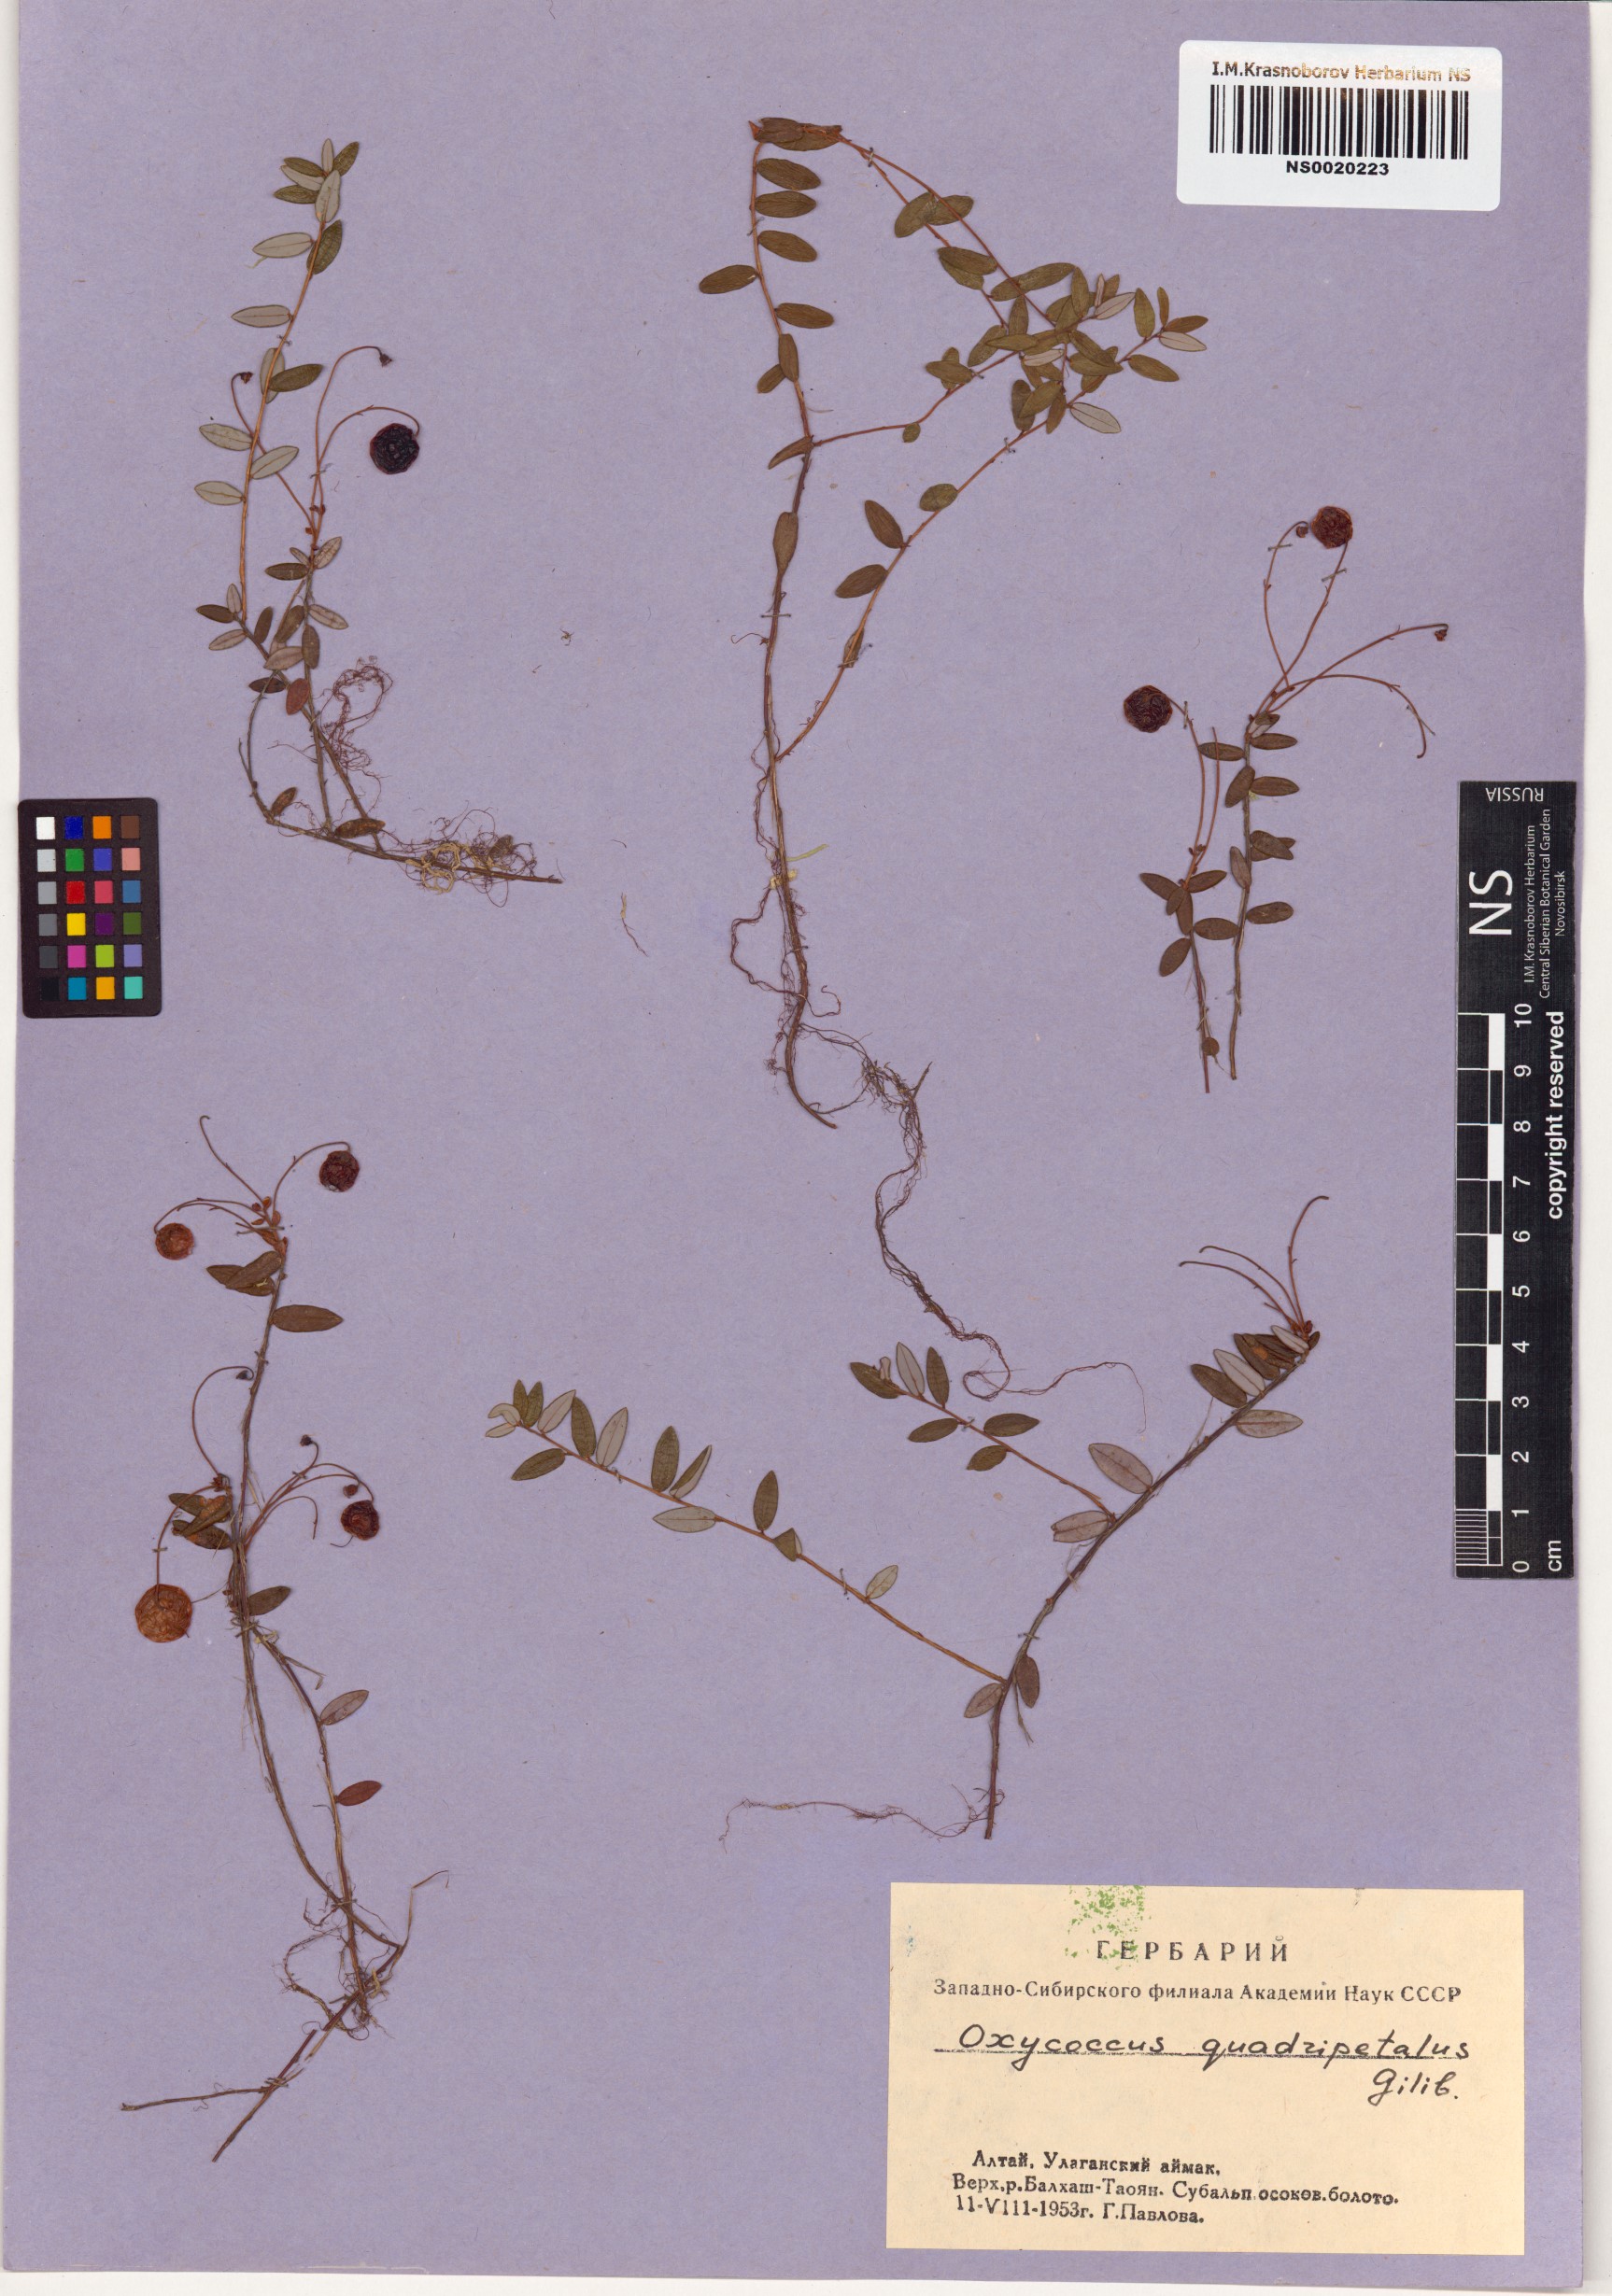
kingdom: Plantae
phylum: Tracheophyta
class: Magnoliopsida
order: Ericales
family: Ericaceae
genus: Vaccinium
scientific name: Vaccinium oxycoccos
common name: Cranberry
